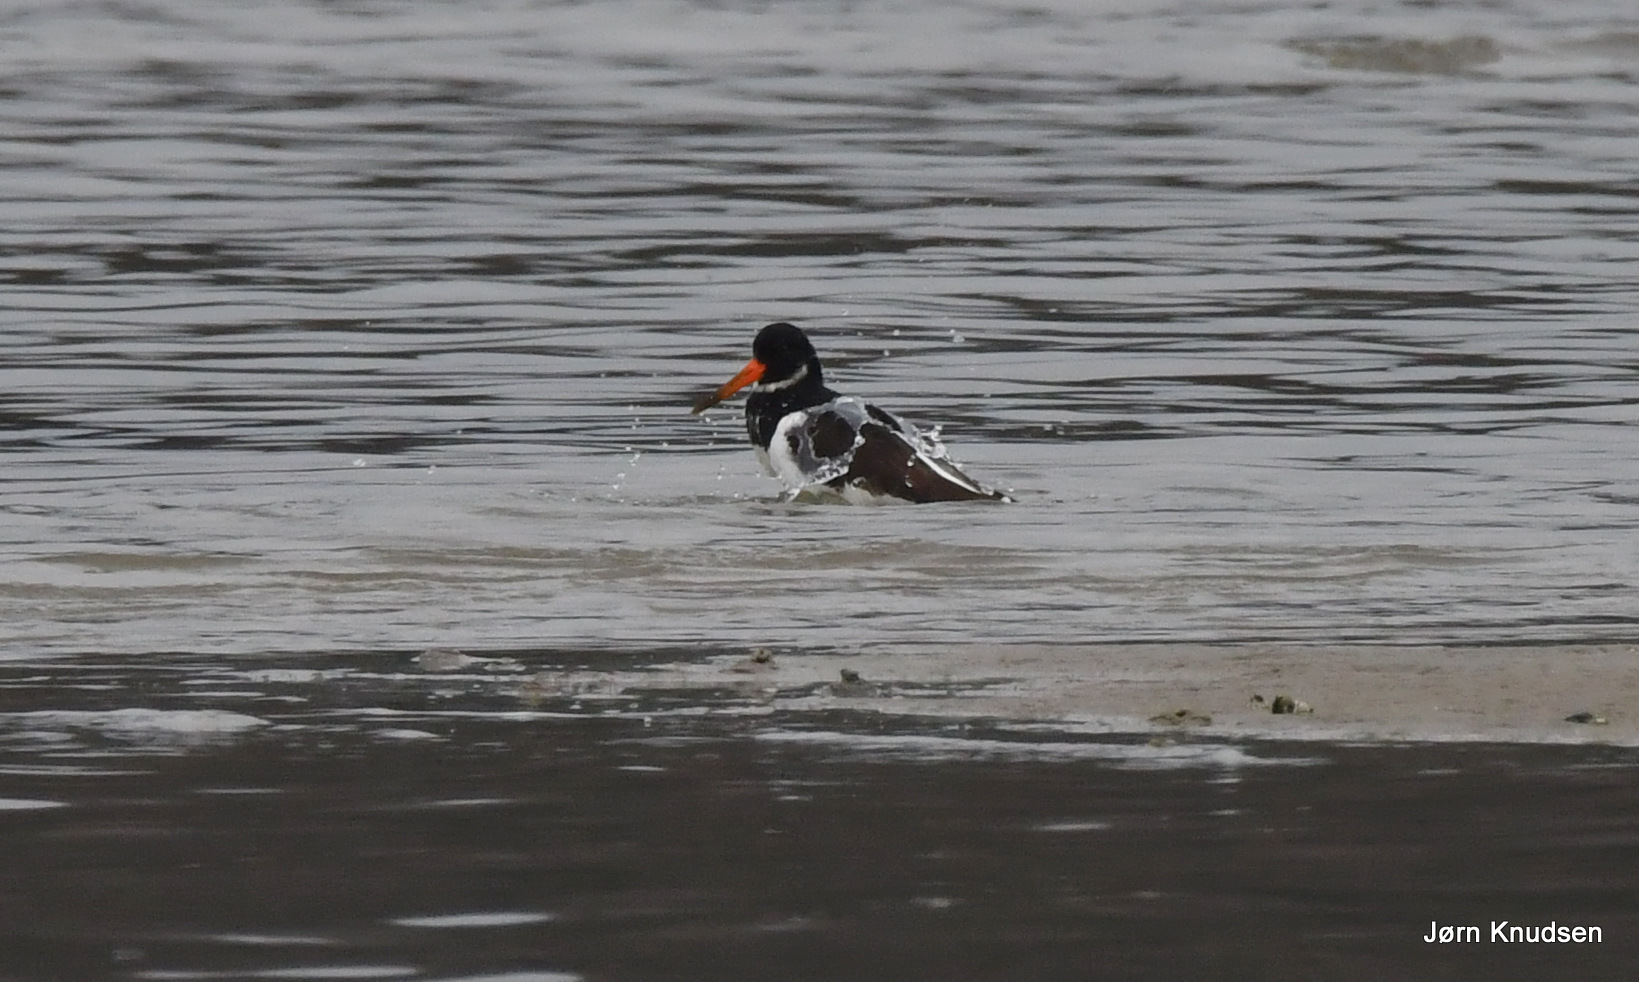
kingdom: Animalia
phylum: Chordata
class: Aves
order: Charadriiformes
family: Haematopodidae
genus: Haematopus
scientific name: Haematopus ostralegus
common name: Strandskade
